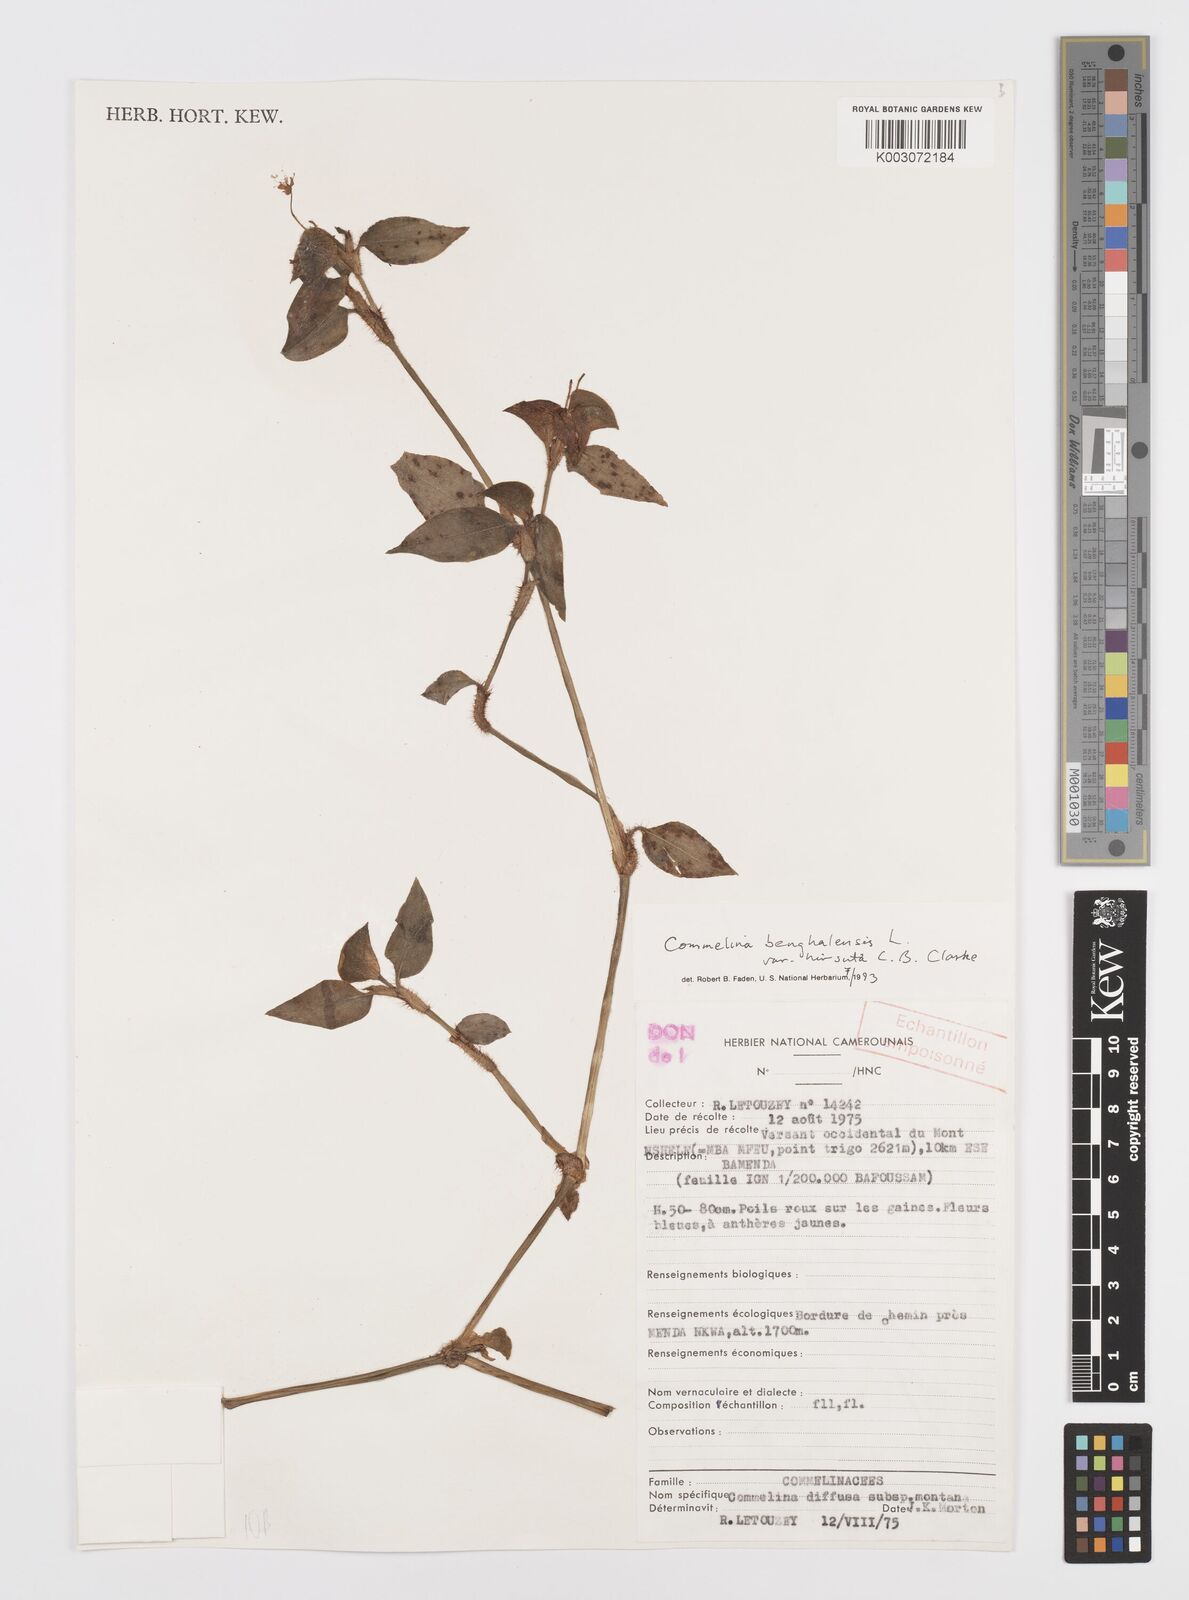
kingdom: Plantae
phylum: Tracheophyta
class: Liliopsida
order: Commelinales
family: Commelinaceae
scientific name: Commelinaceae
